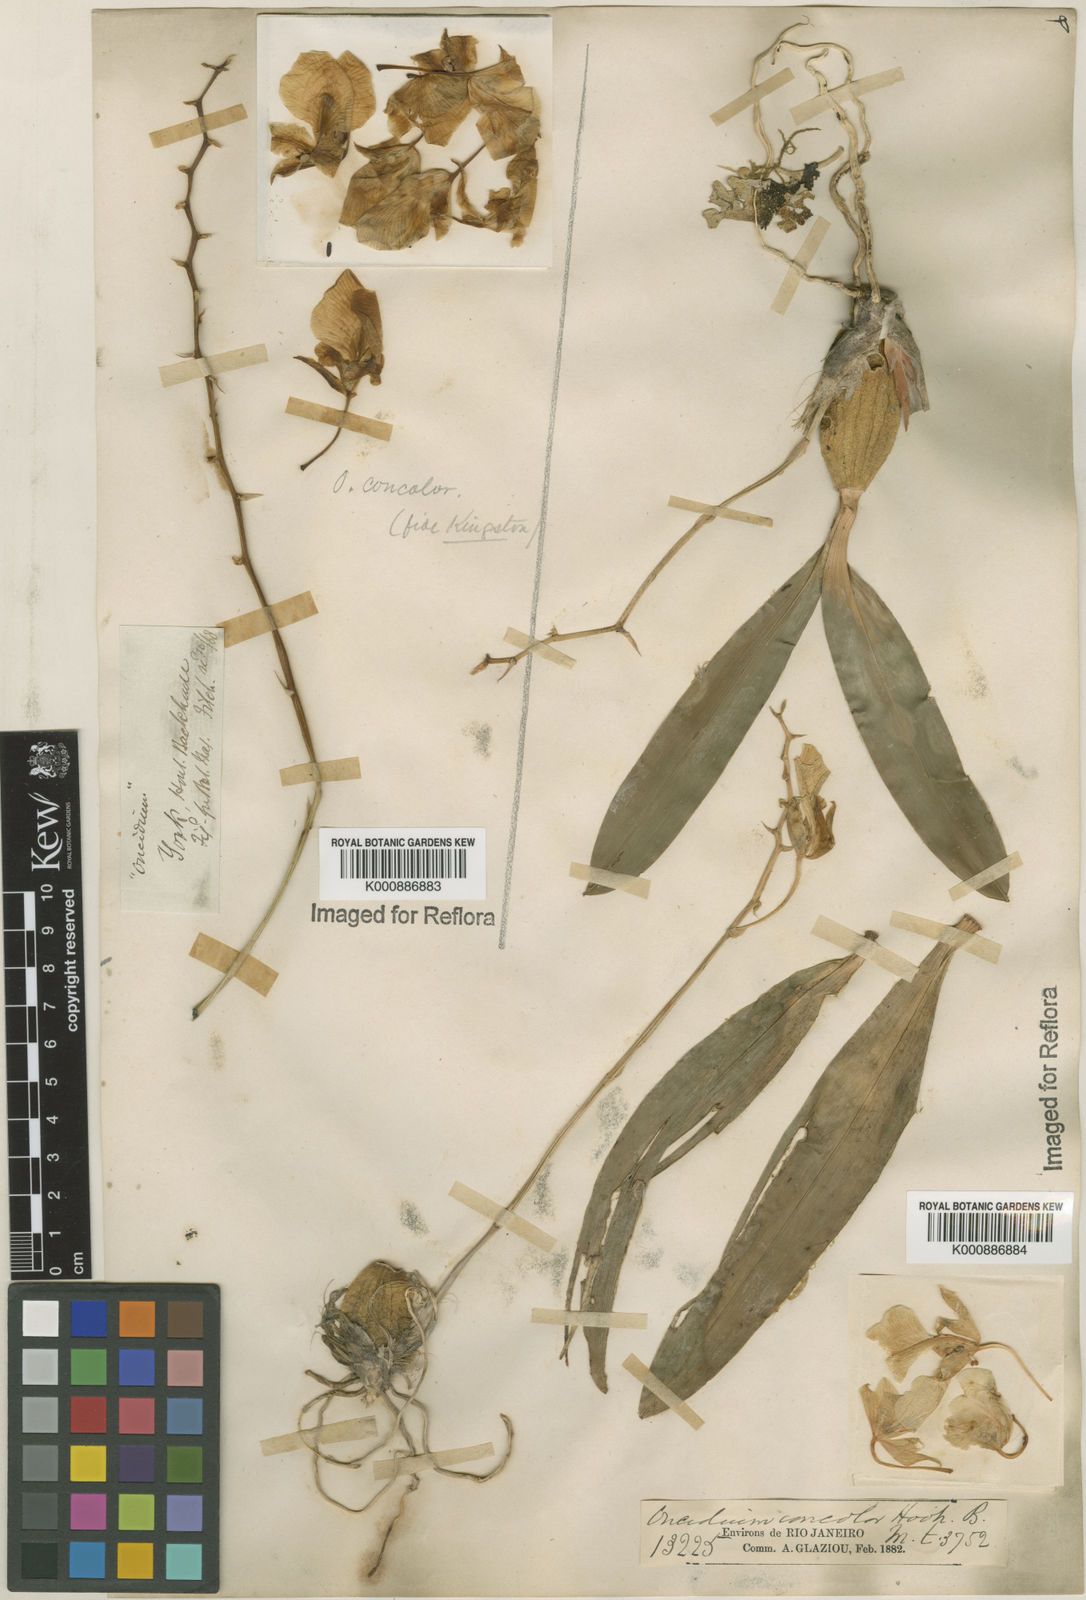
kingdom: Plantae
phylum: Tracheophyta
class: Liliopsida
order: Asparagales
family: Orchidaceae
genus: Gomesa
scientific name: Gomesa concolor
